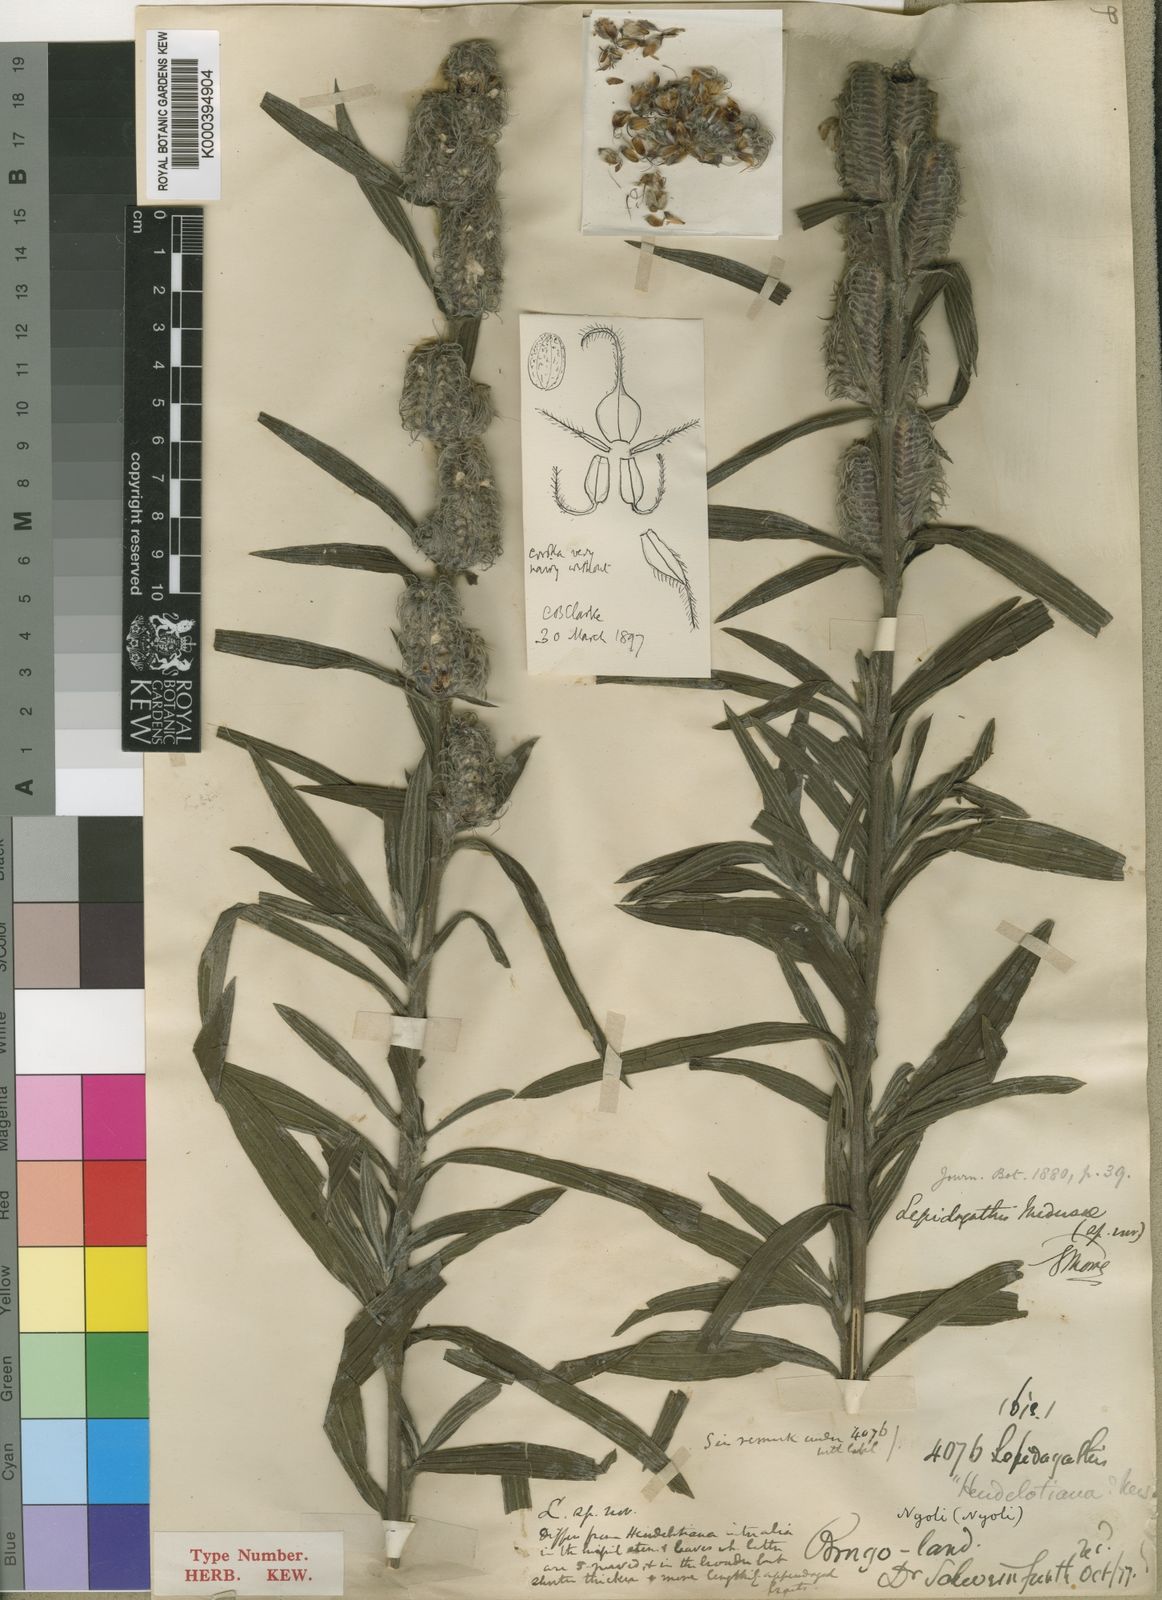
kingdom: Plantae
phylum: Tracheophyta
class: Magnoliopsida
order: Lamiales
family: Acanthaceae
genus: Lepidagathis
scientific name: Lepidagathis medusae
